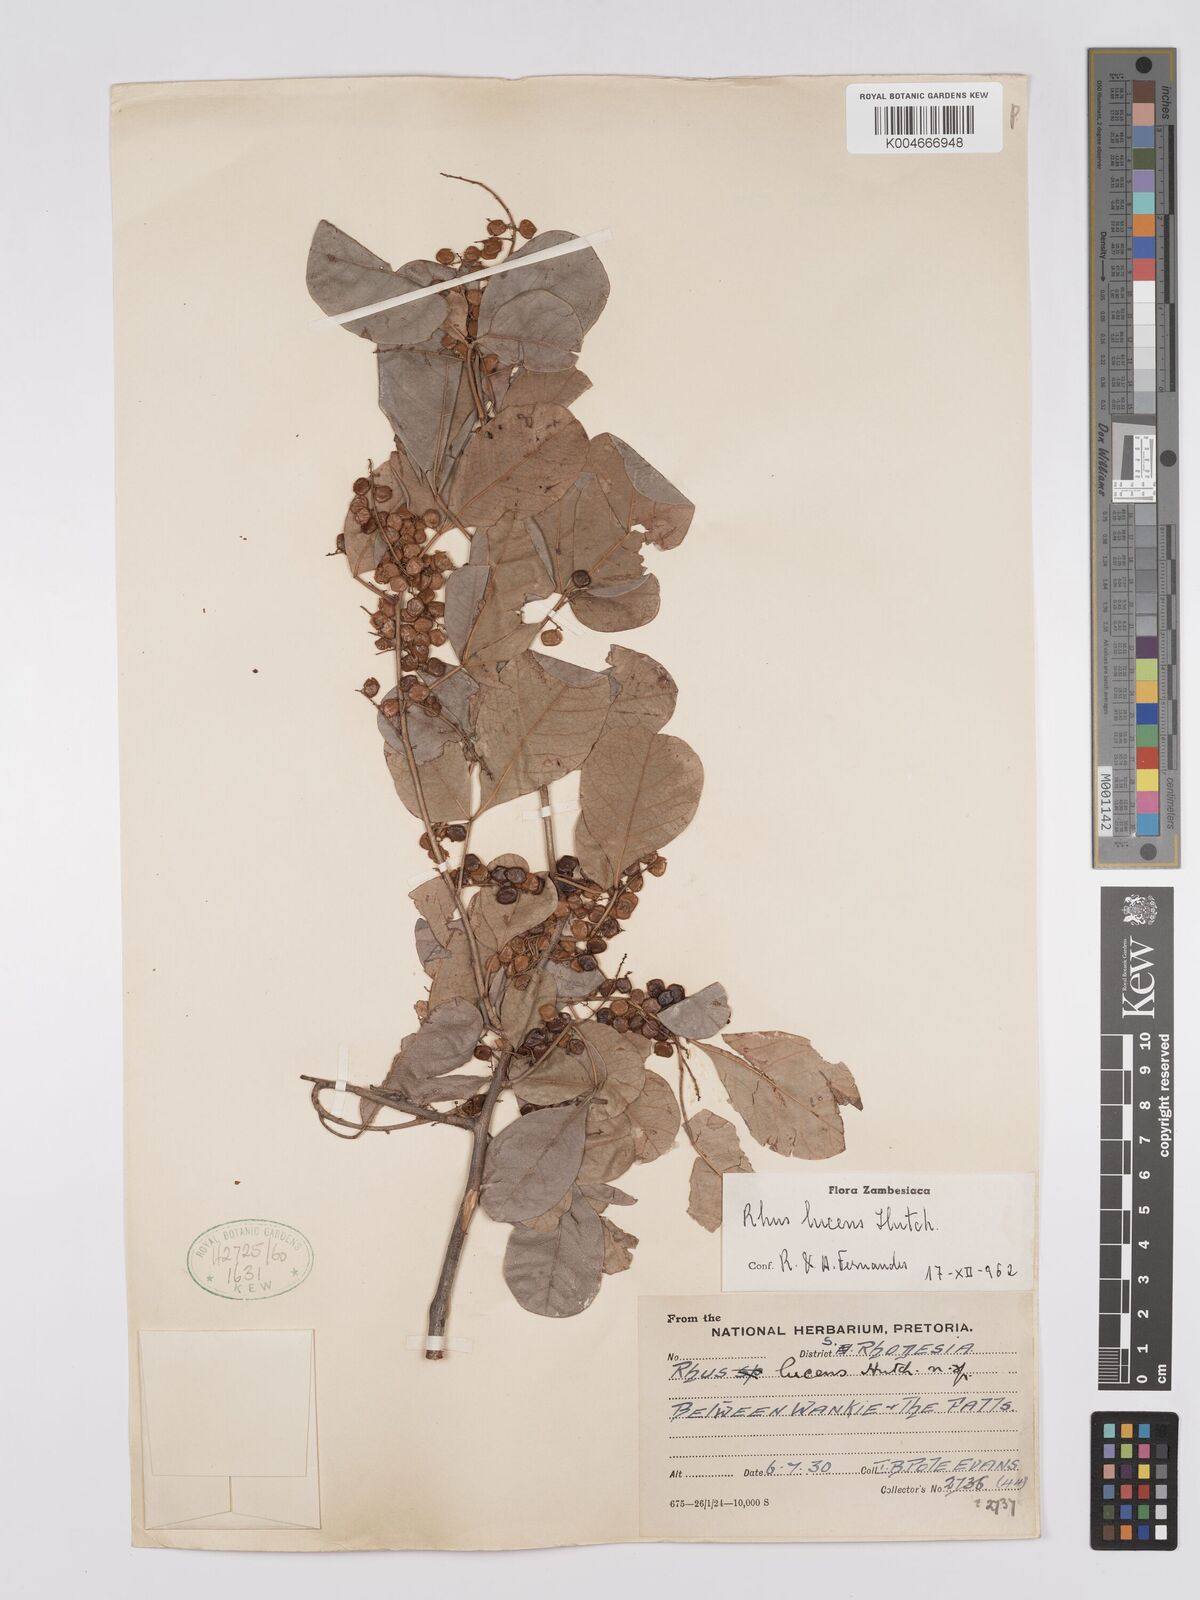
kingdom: Plantae
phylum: Tracheophyta
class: Magnoliopsida
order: Sapindales
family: Anacardiaceae
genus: Searsia
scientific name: Searsia lucens
